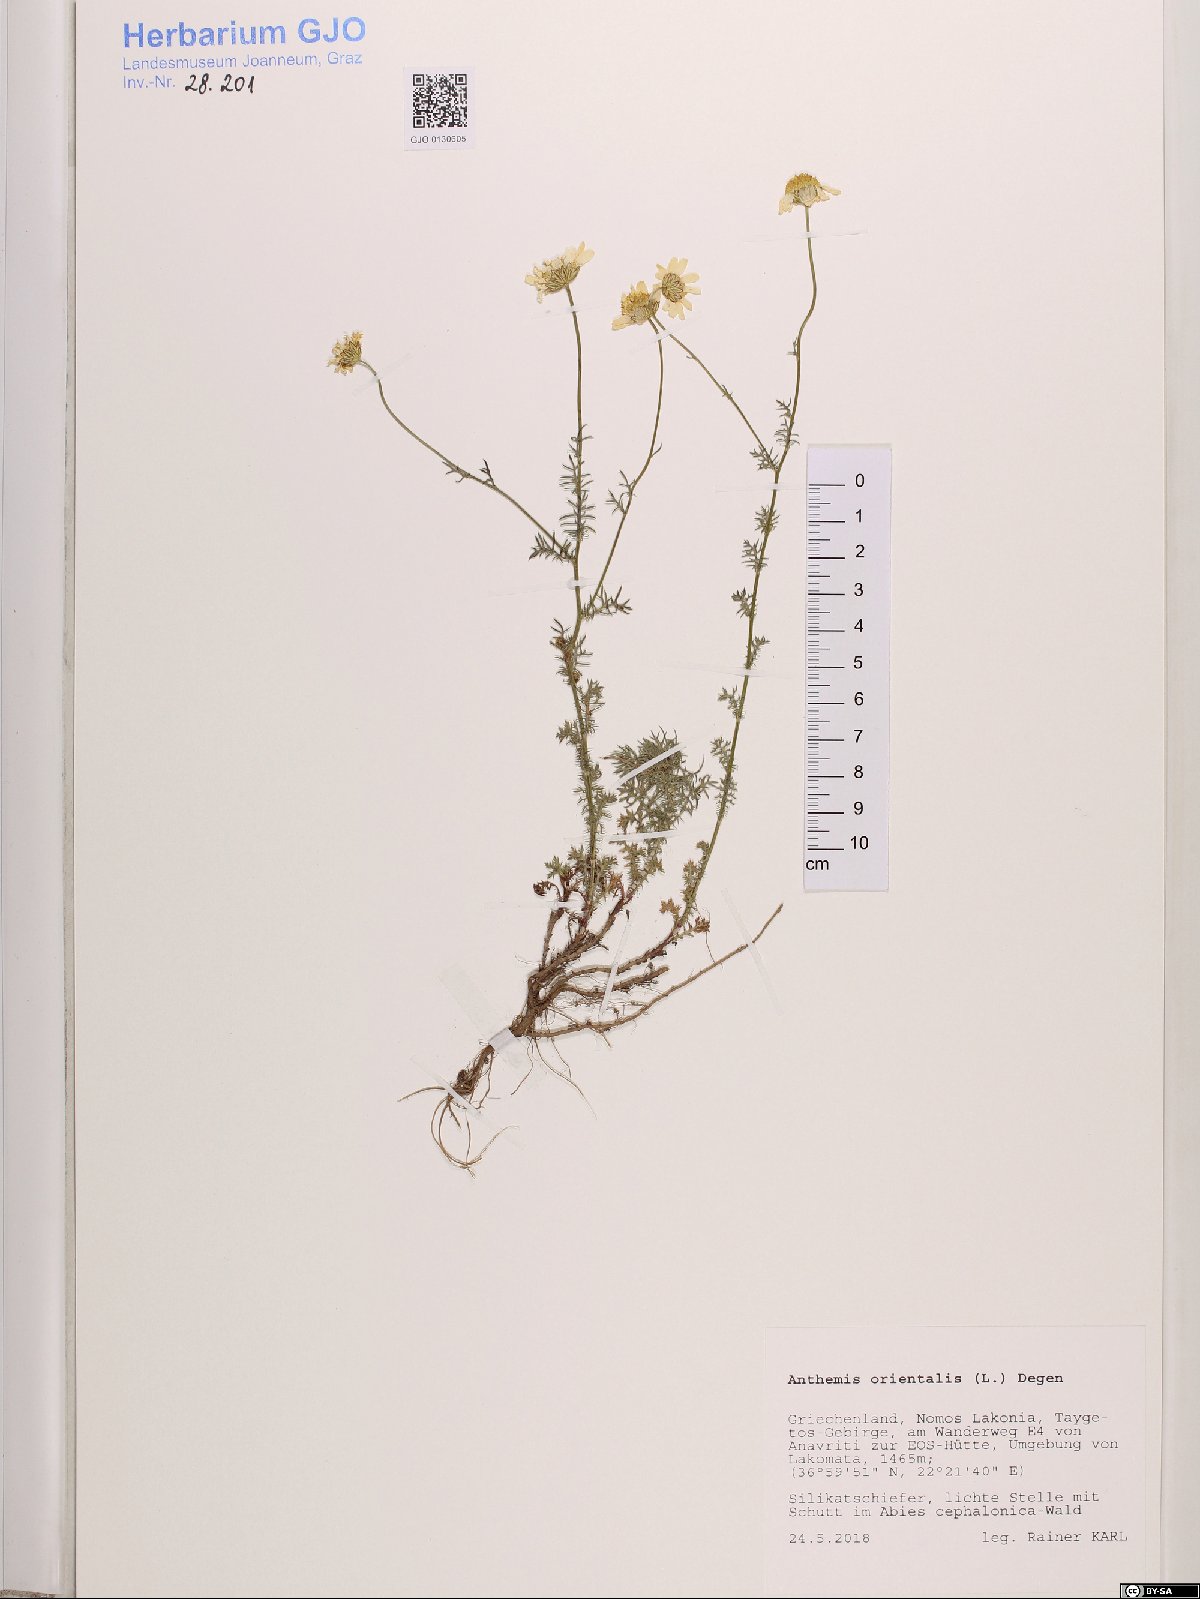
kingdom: Plantae
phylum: Tracheophyta
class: Magnoliopsida
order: Asterales
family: Asteraceae
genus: Anthemis
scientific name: Anthemis orientalis
